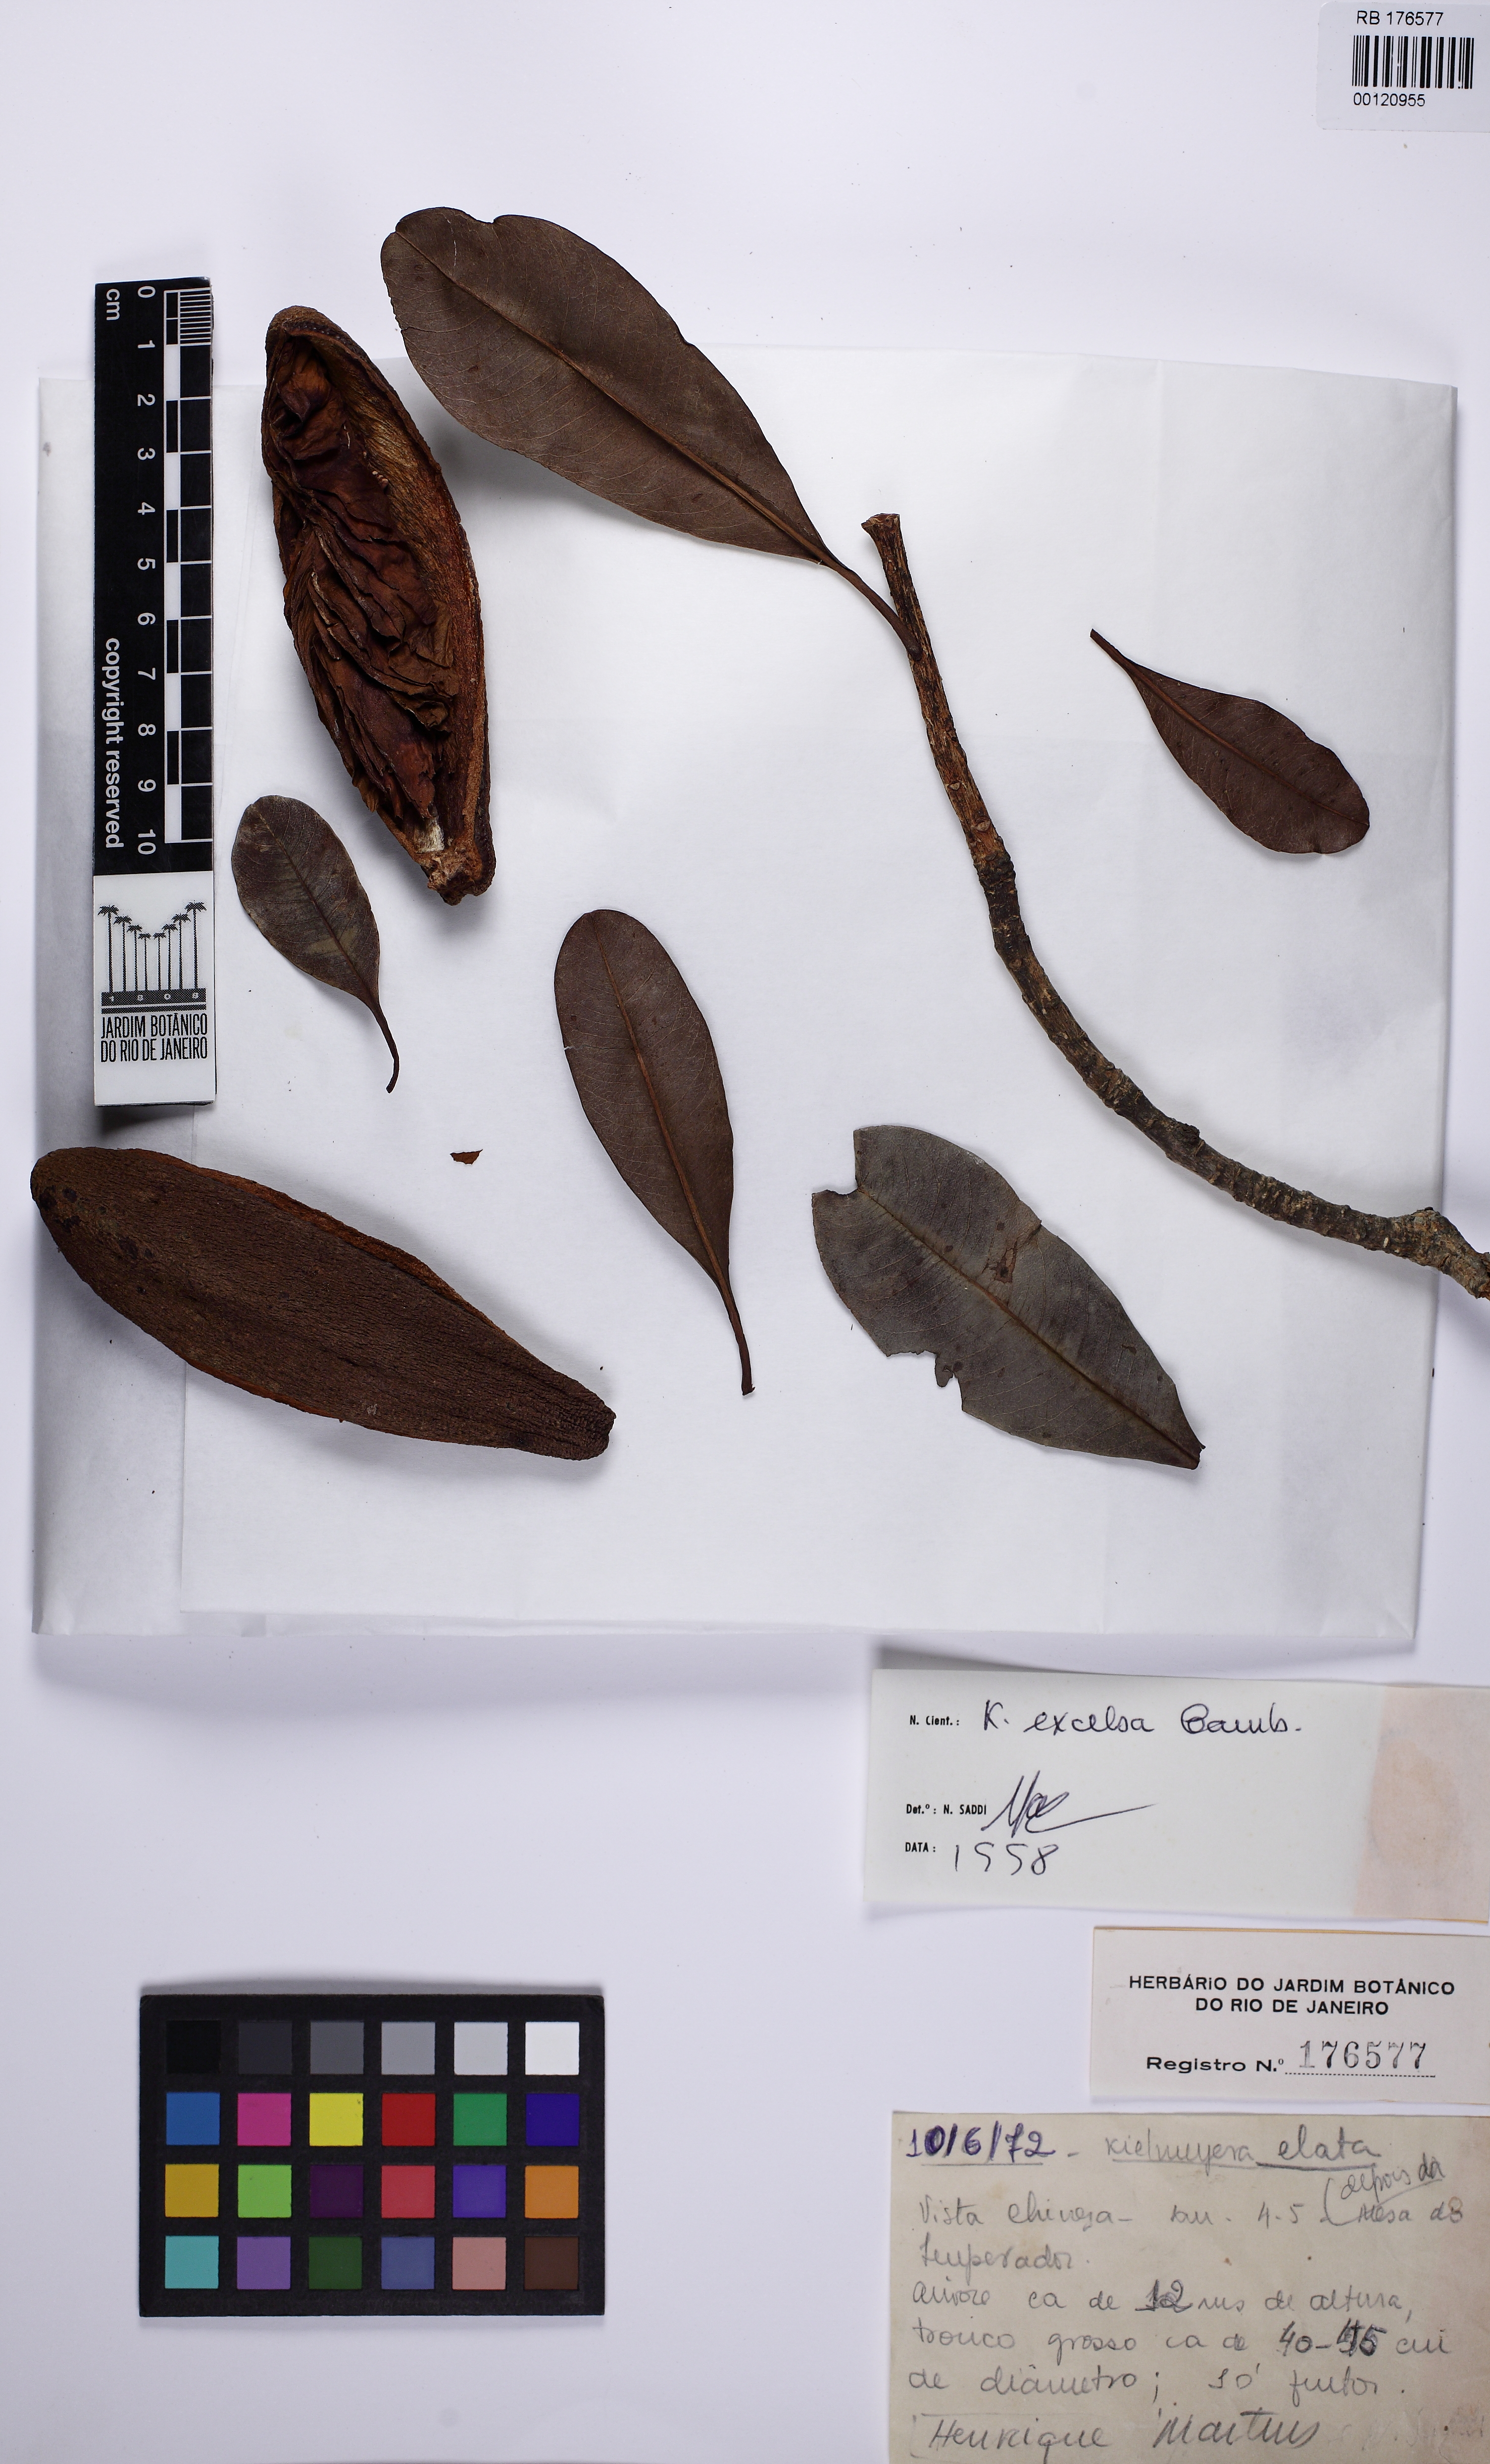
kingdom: Plantae
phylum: Tracheophyta
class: Magnoliopsida
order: Malpighiales
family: Calophyllaceae
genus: Kielmeyera
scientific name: Kielmeyera excelsa
